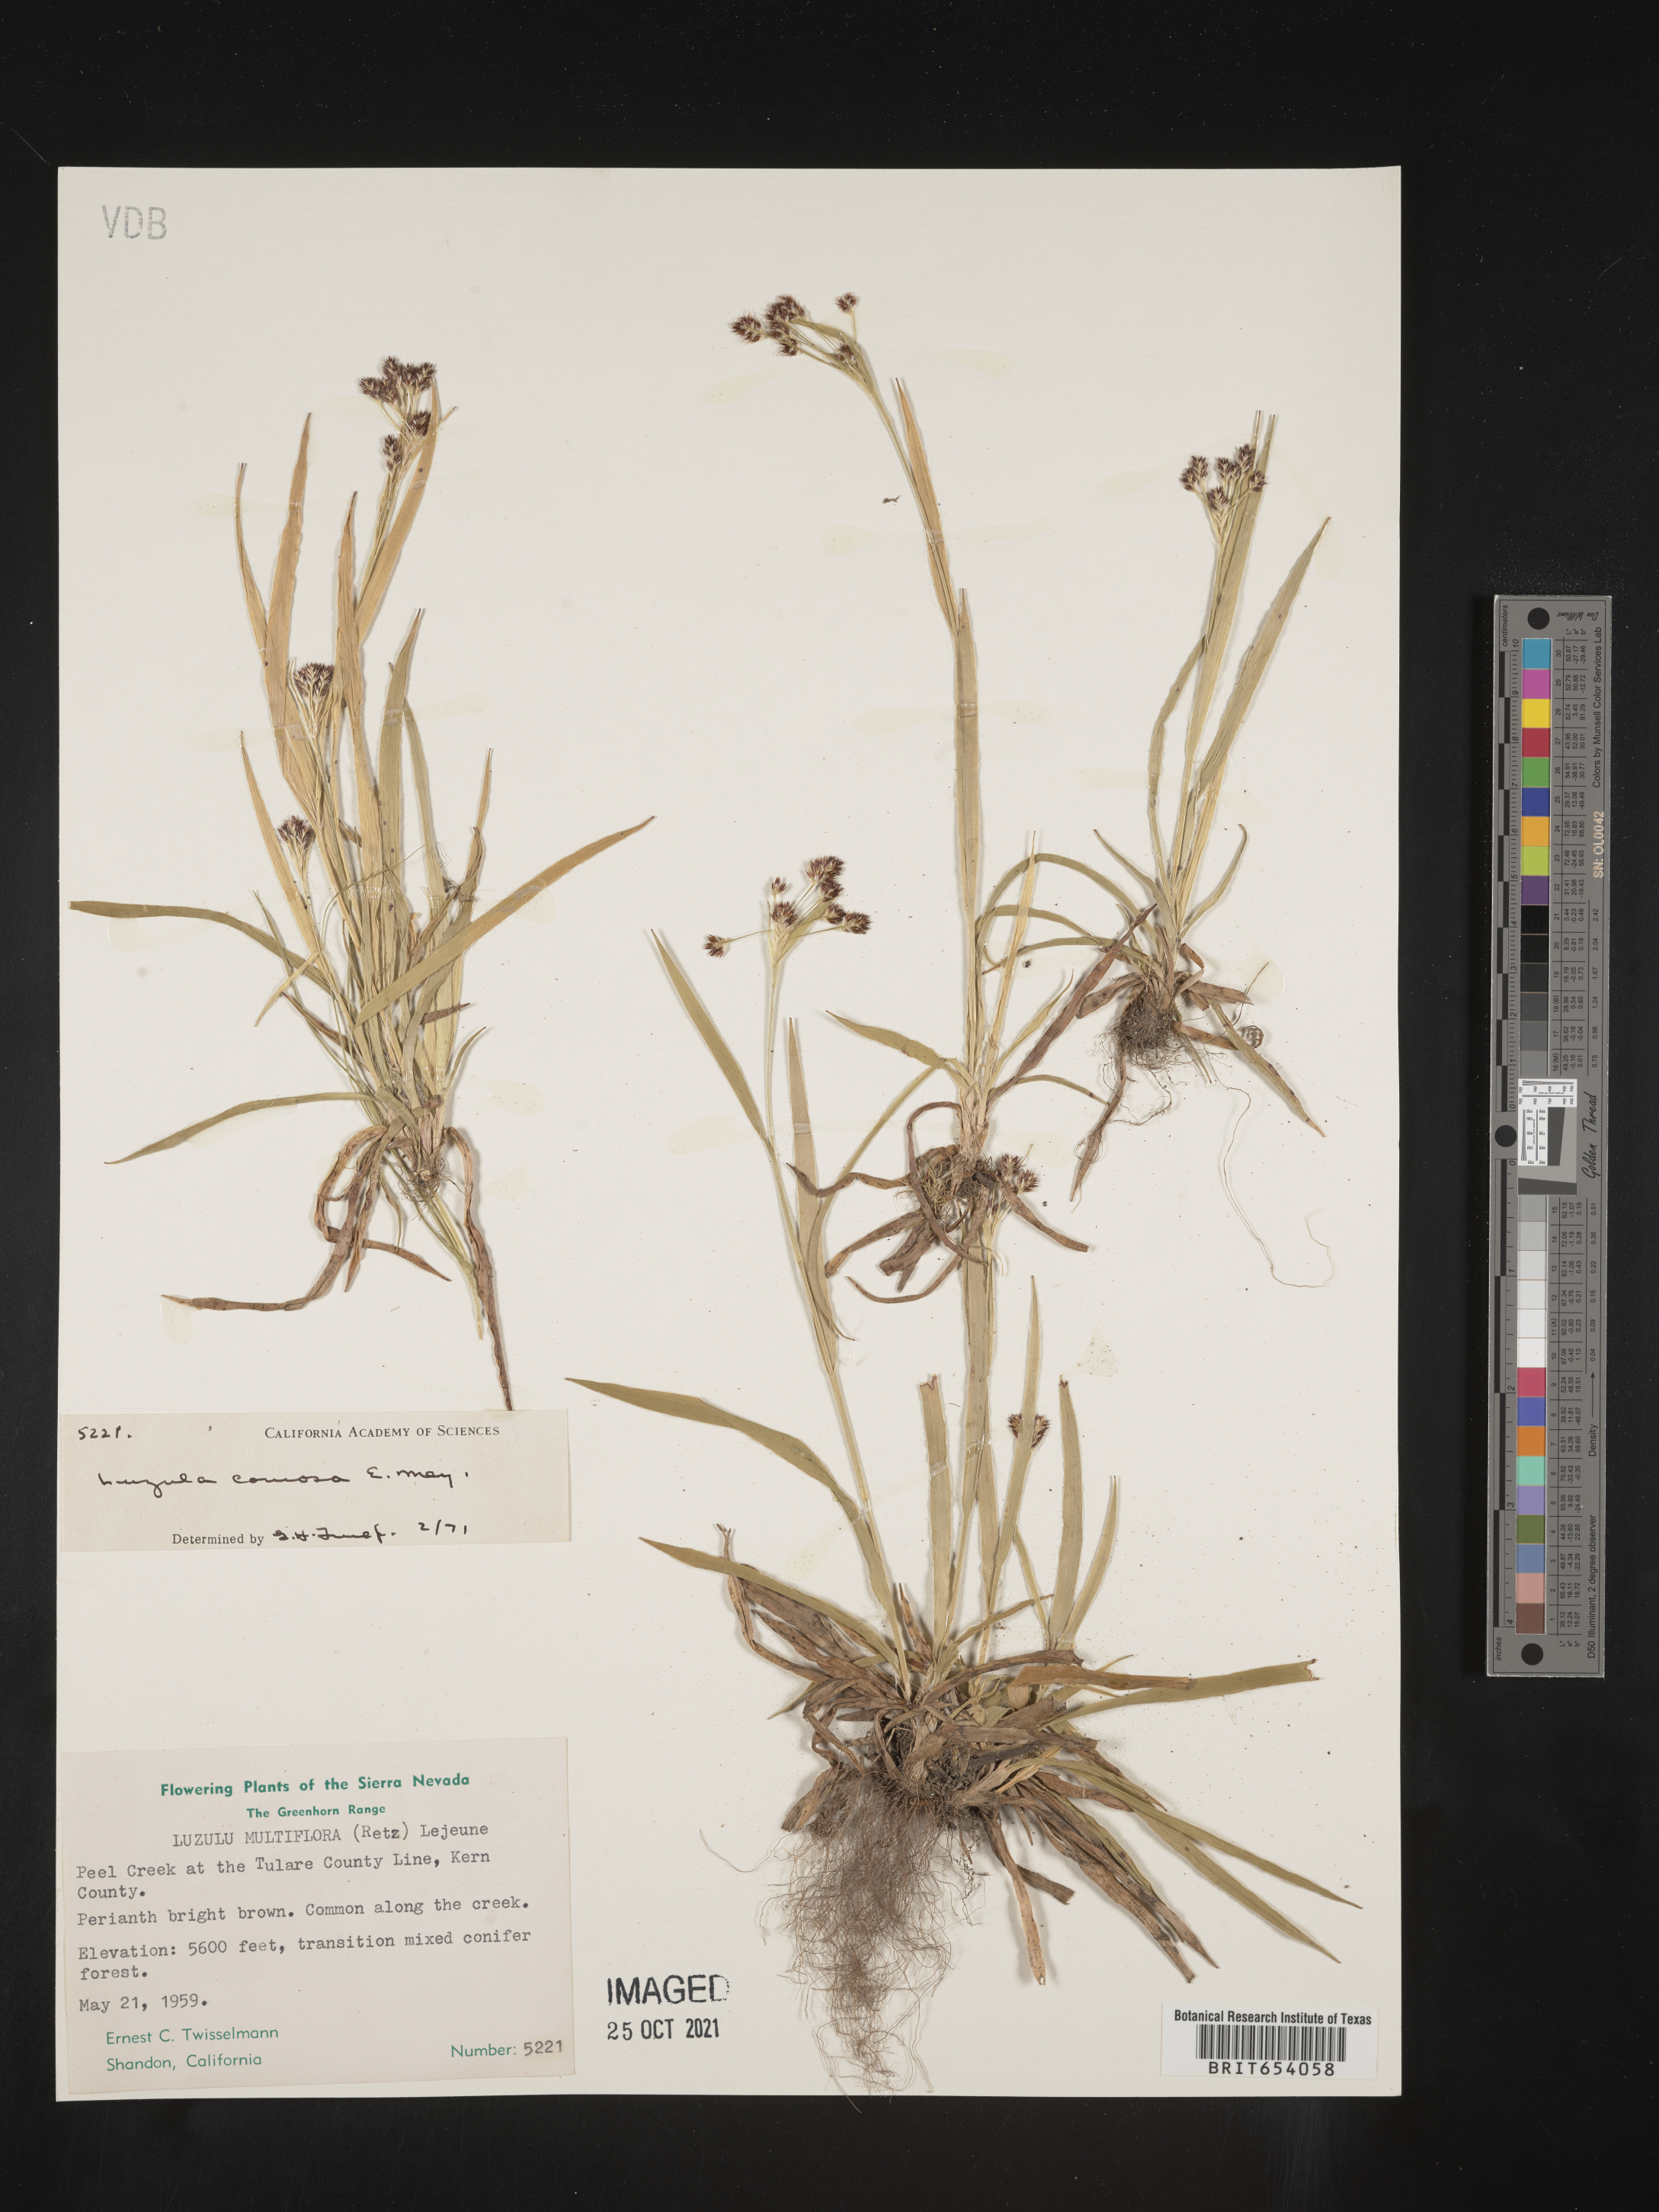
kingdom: Plantae
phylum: Tracheophyta
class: Liliopsida
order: Poales
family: Juncaceae
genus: Luzula
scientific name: Luzula comosa
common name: Pacific woodrush
